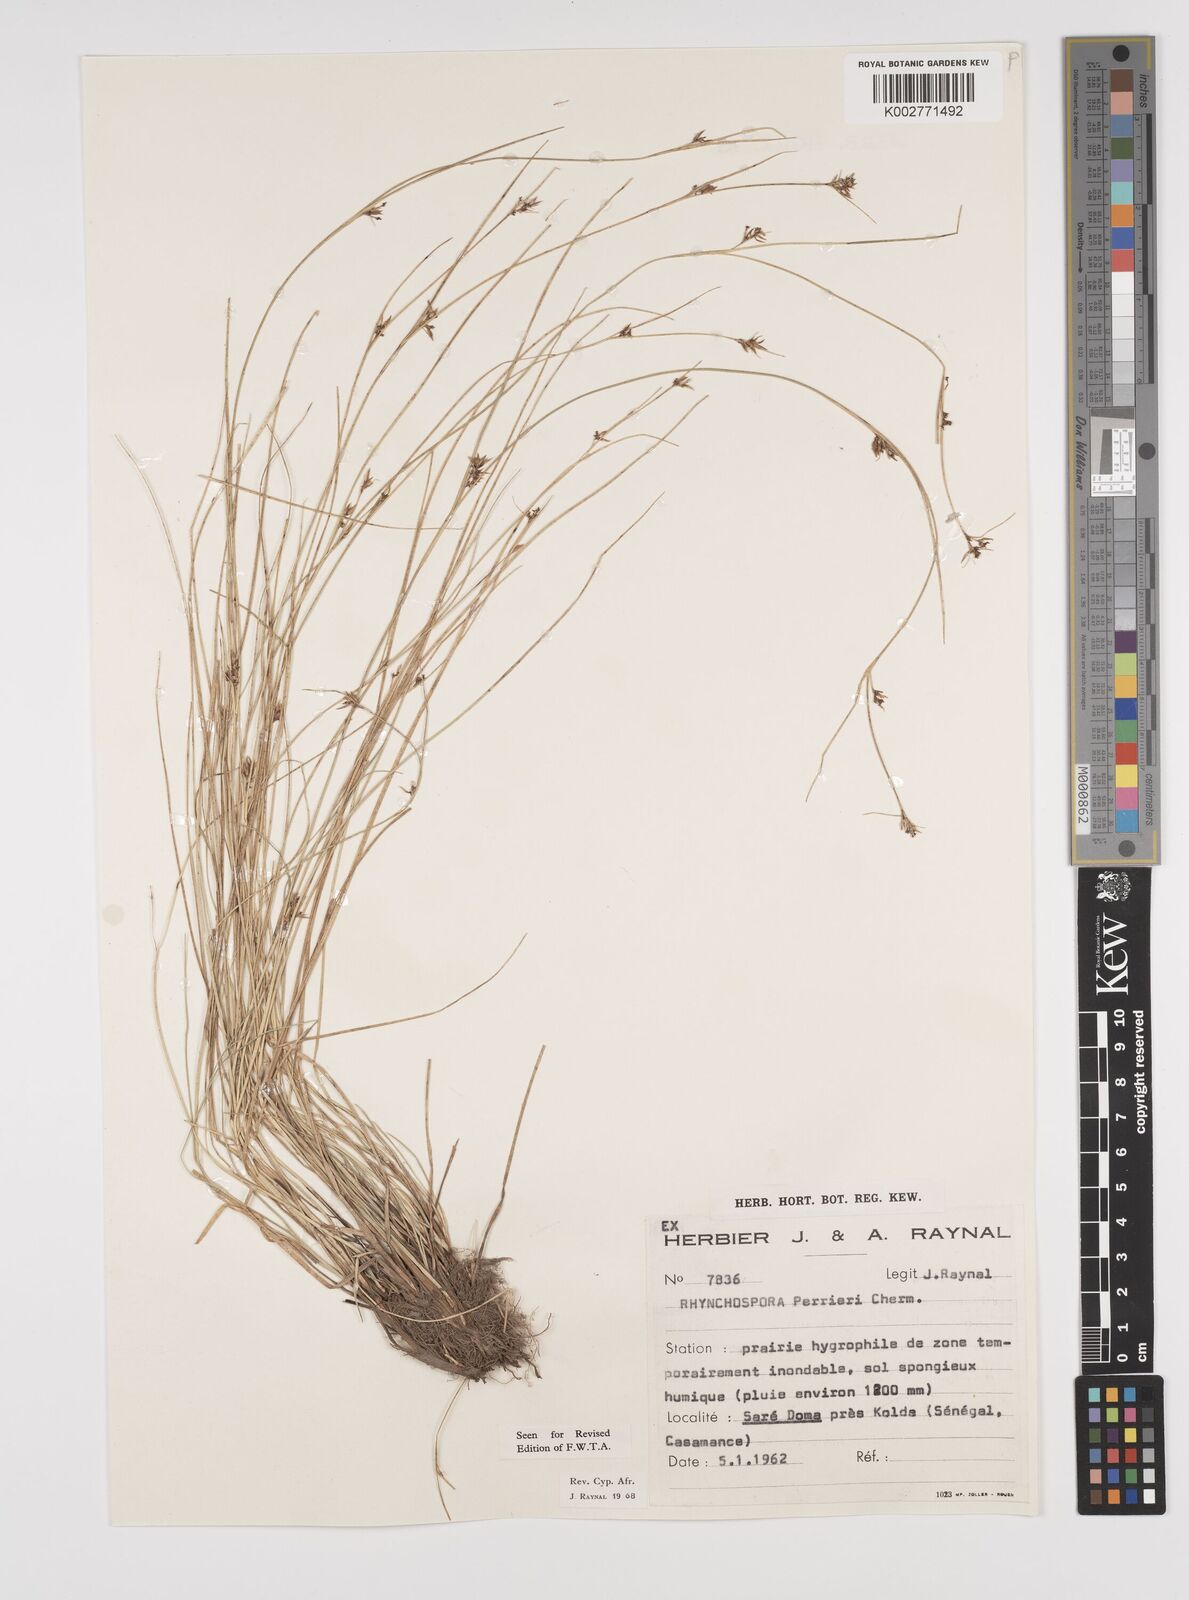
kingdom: Plantae
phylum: Tracheophyta
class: Liliopsida
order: Poales
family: Cyperaceae
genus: Rhynchospora
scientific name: Rhynchospora perrieri
